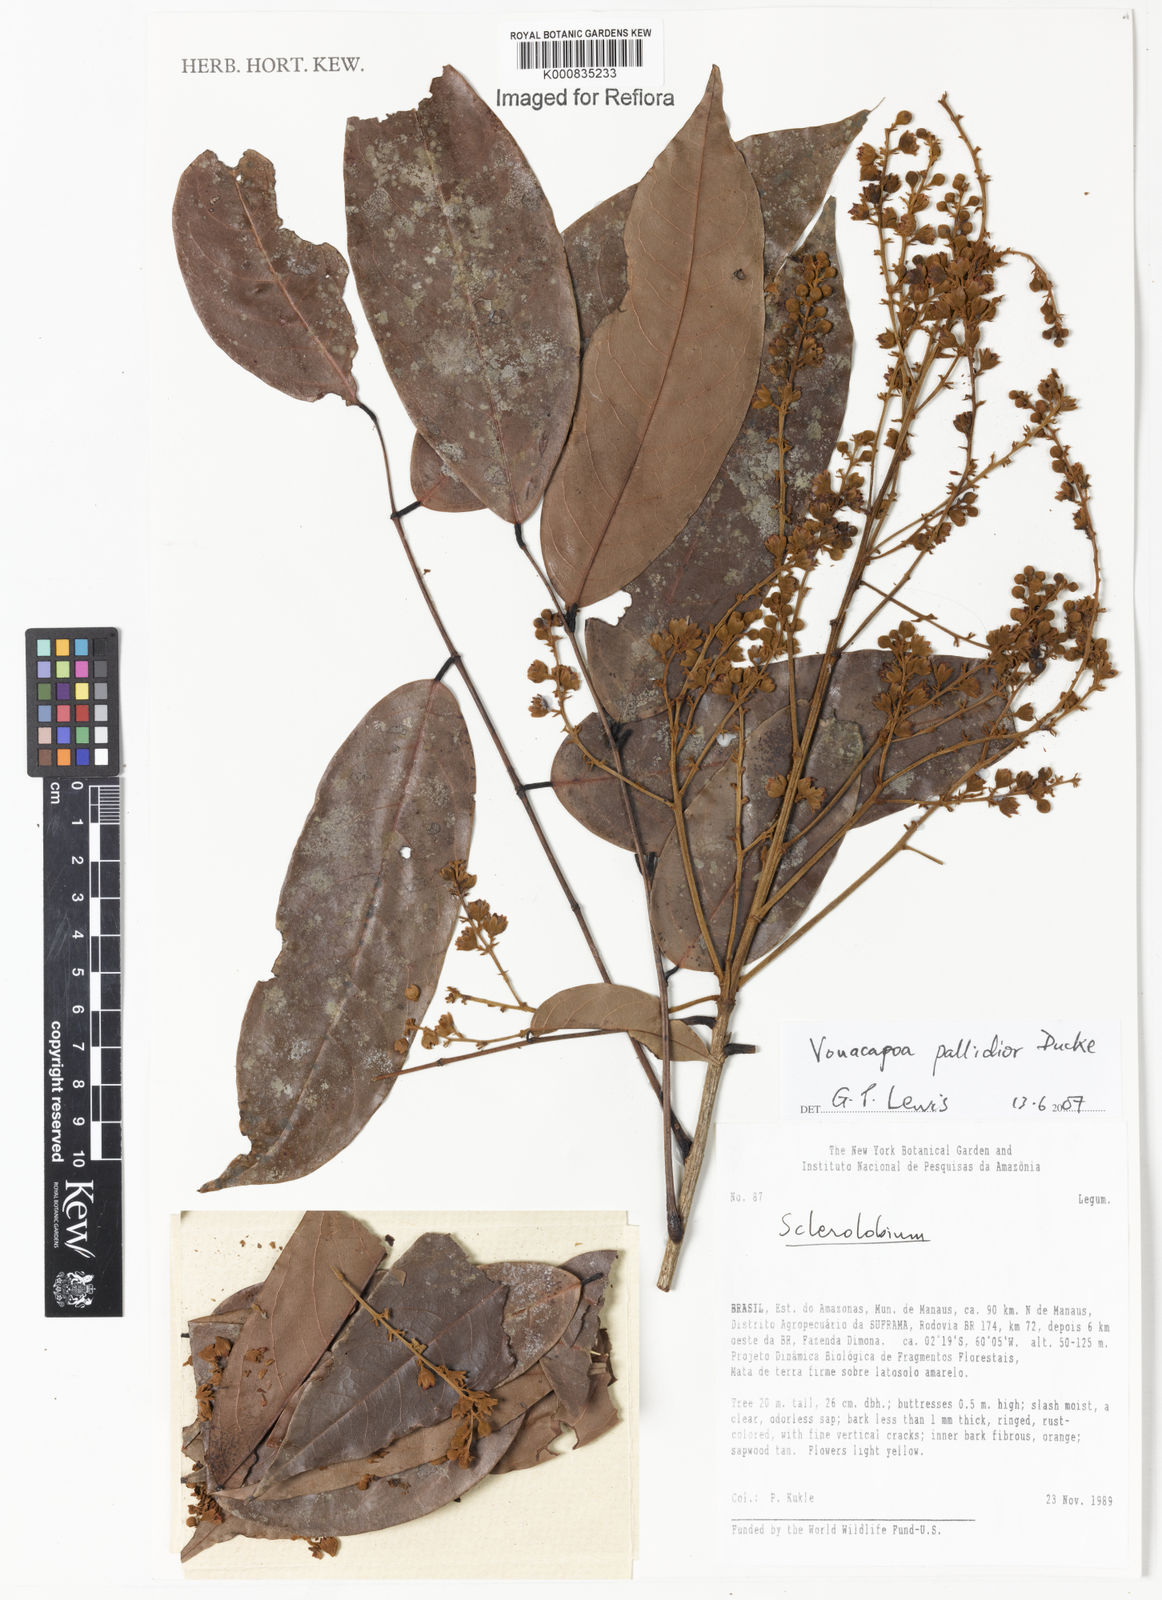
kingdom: Plantae
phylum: Tracheophyta
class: Magnoliopsida
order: Fabales
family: Fabaceae
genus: Tachigali
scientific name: Tachigali
